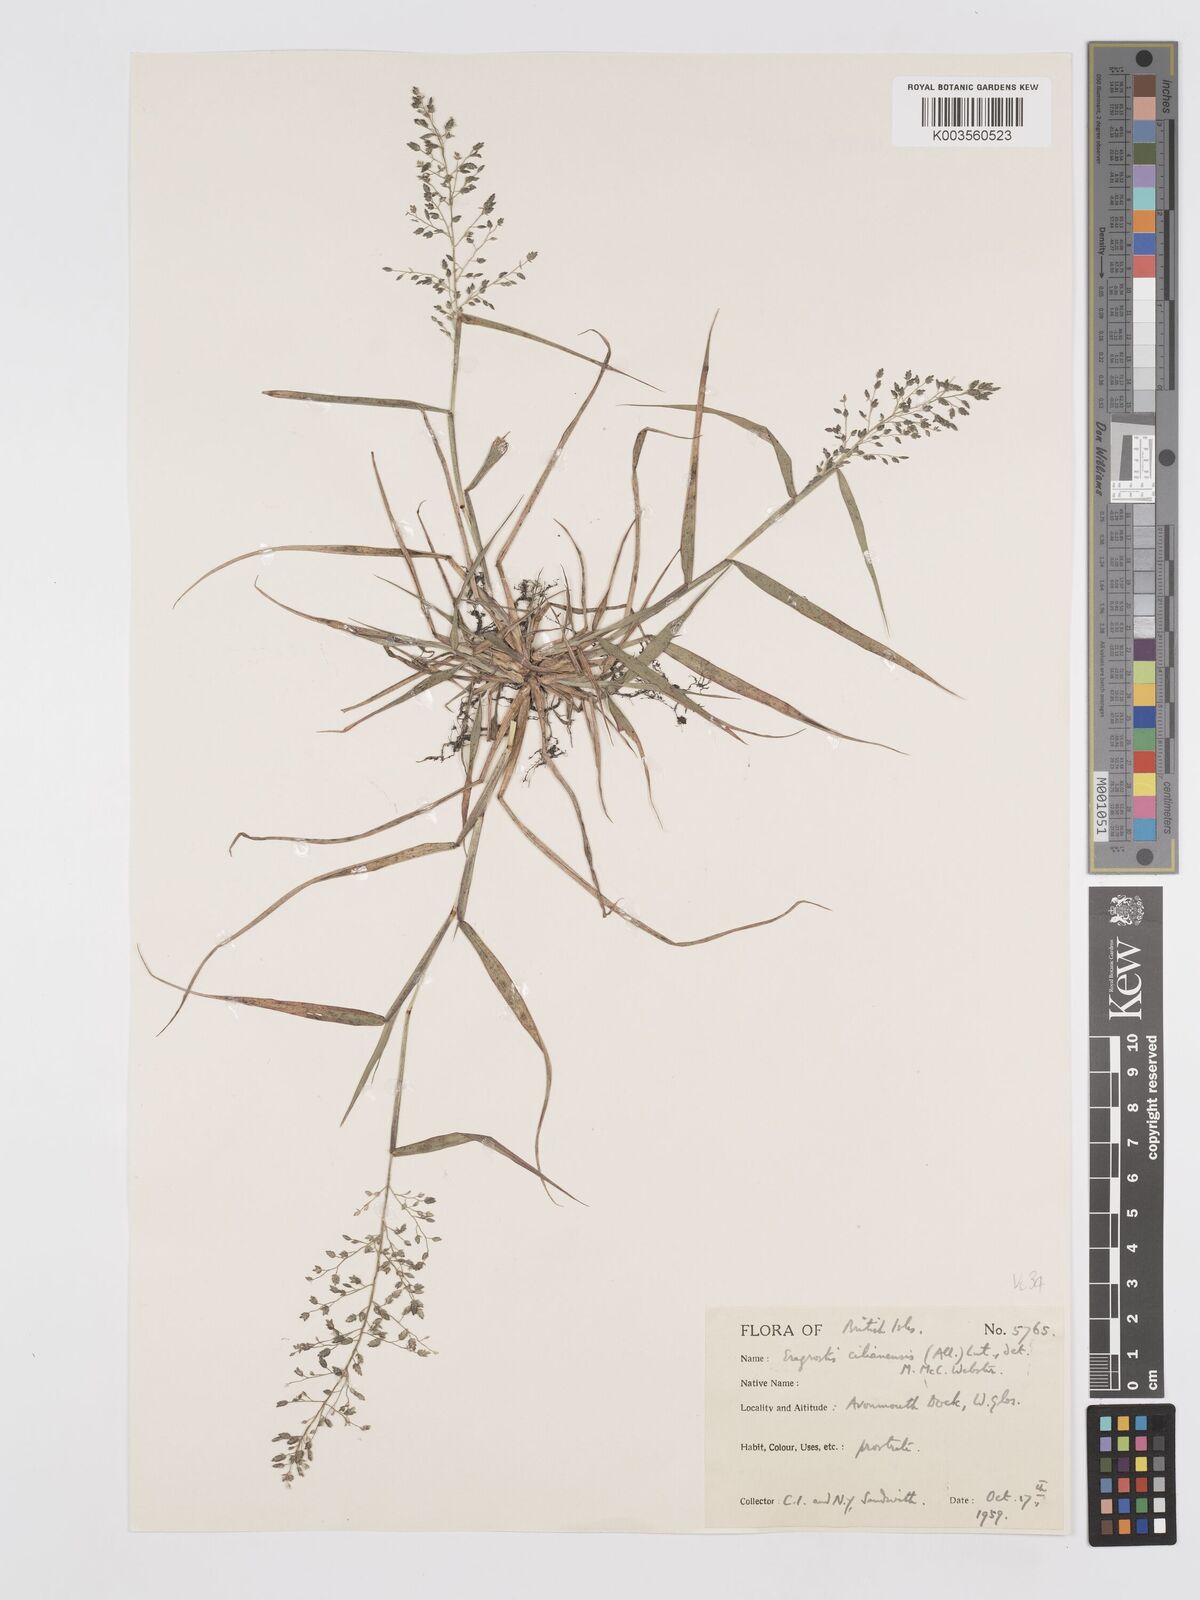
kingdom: Plantae
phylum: Tracheophyta
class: Liliopsida
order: Poales
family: Poaceae
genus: Eragrostis
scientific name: Eragrostis cilianensis
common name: Stinkgrass
